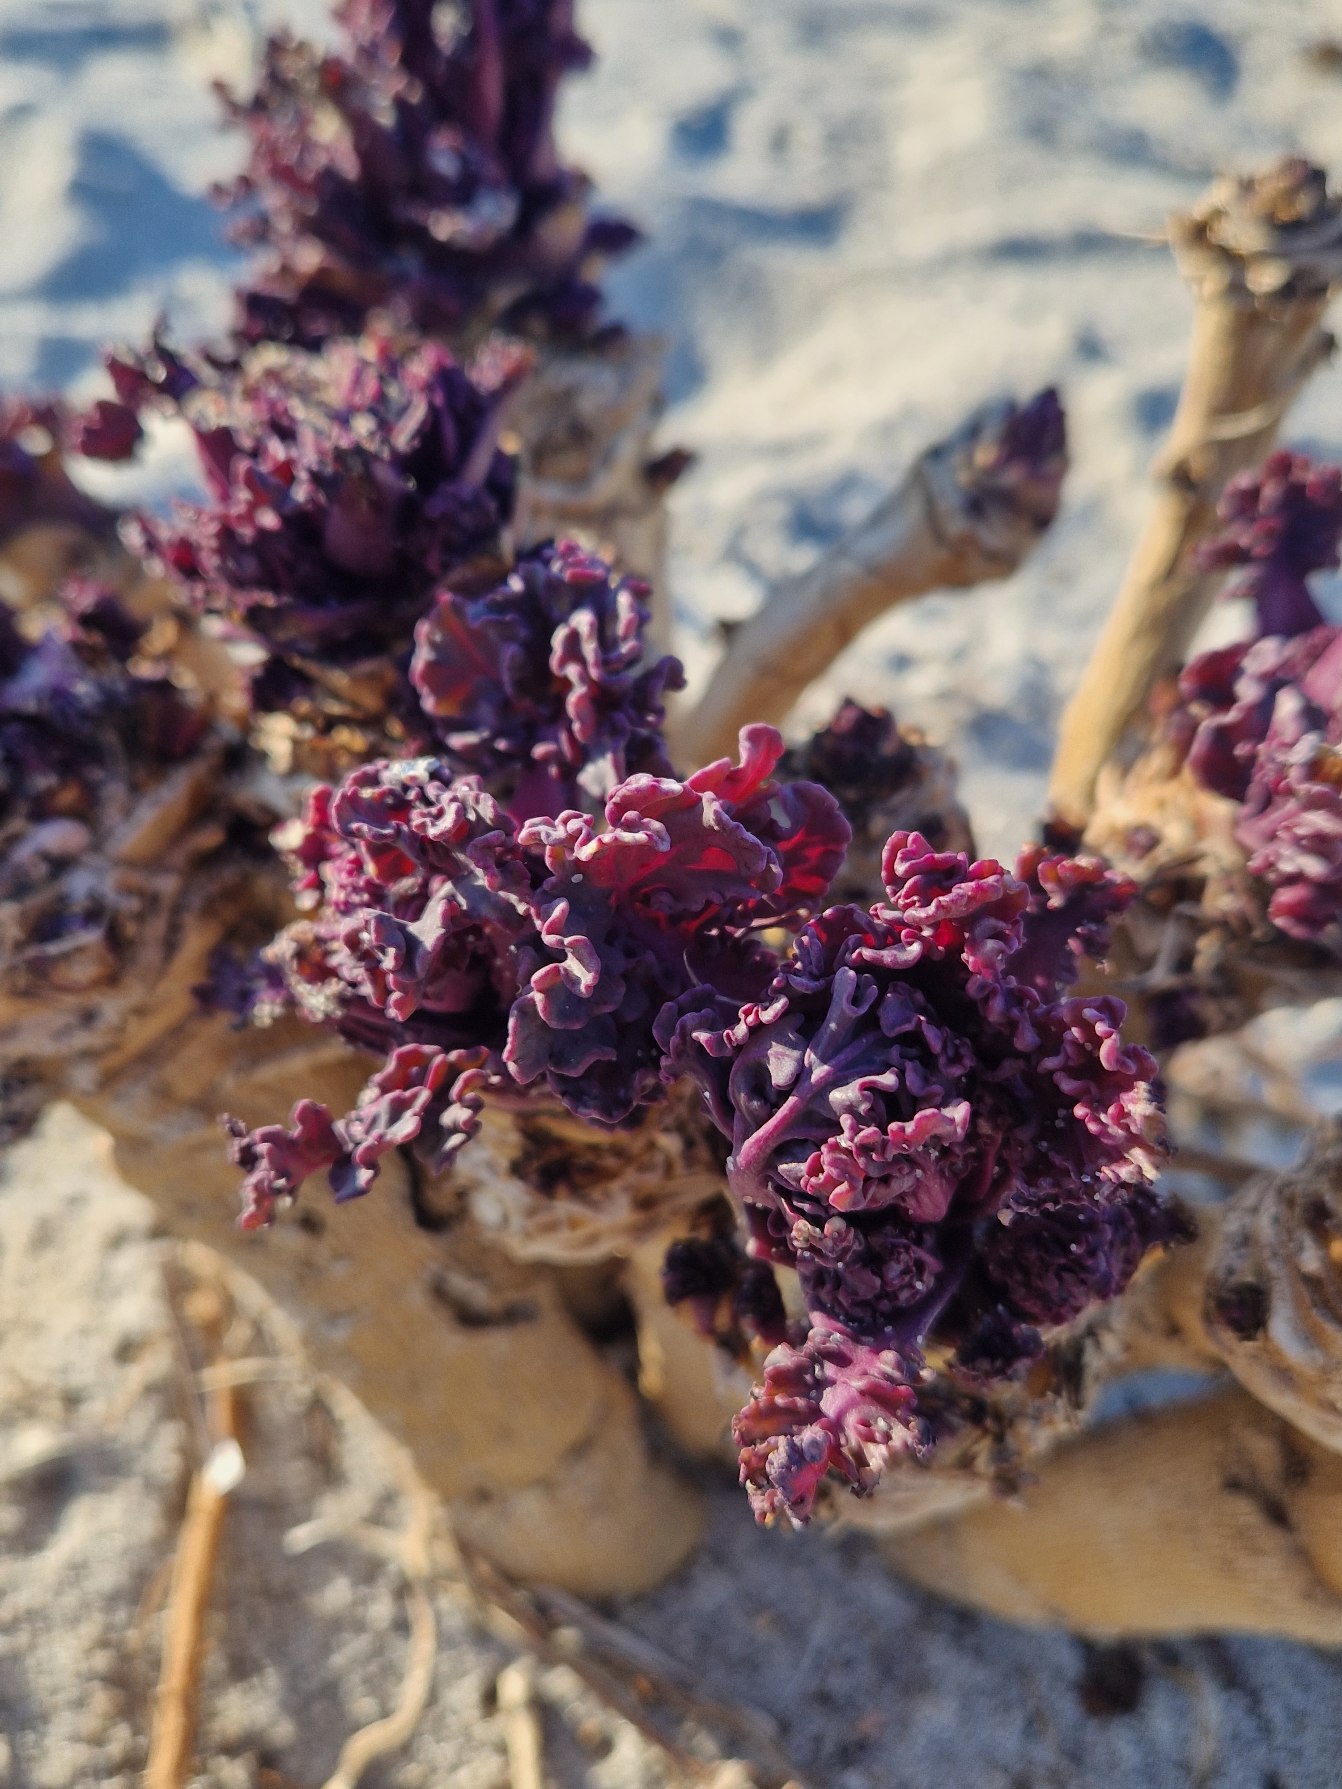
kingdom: Plantae
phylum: Tracheophyta
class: Magnoliopsida
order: Brassicales
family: Brassicaceae
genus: Crambe
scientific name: Crambe maritima
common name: Strandkål
